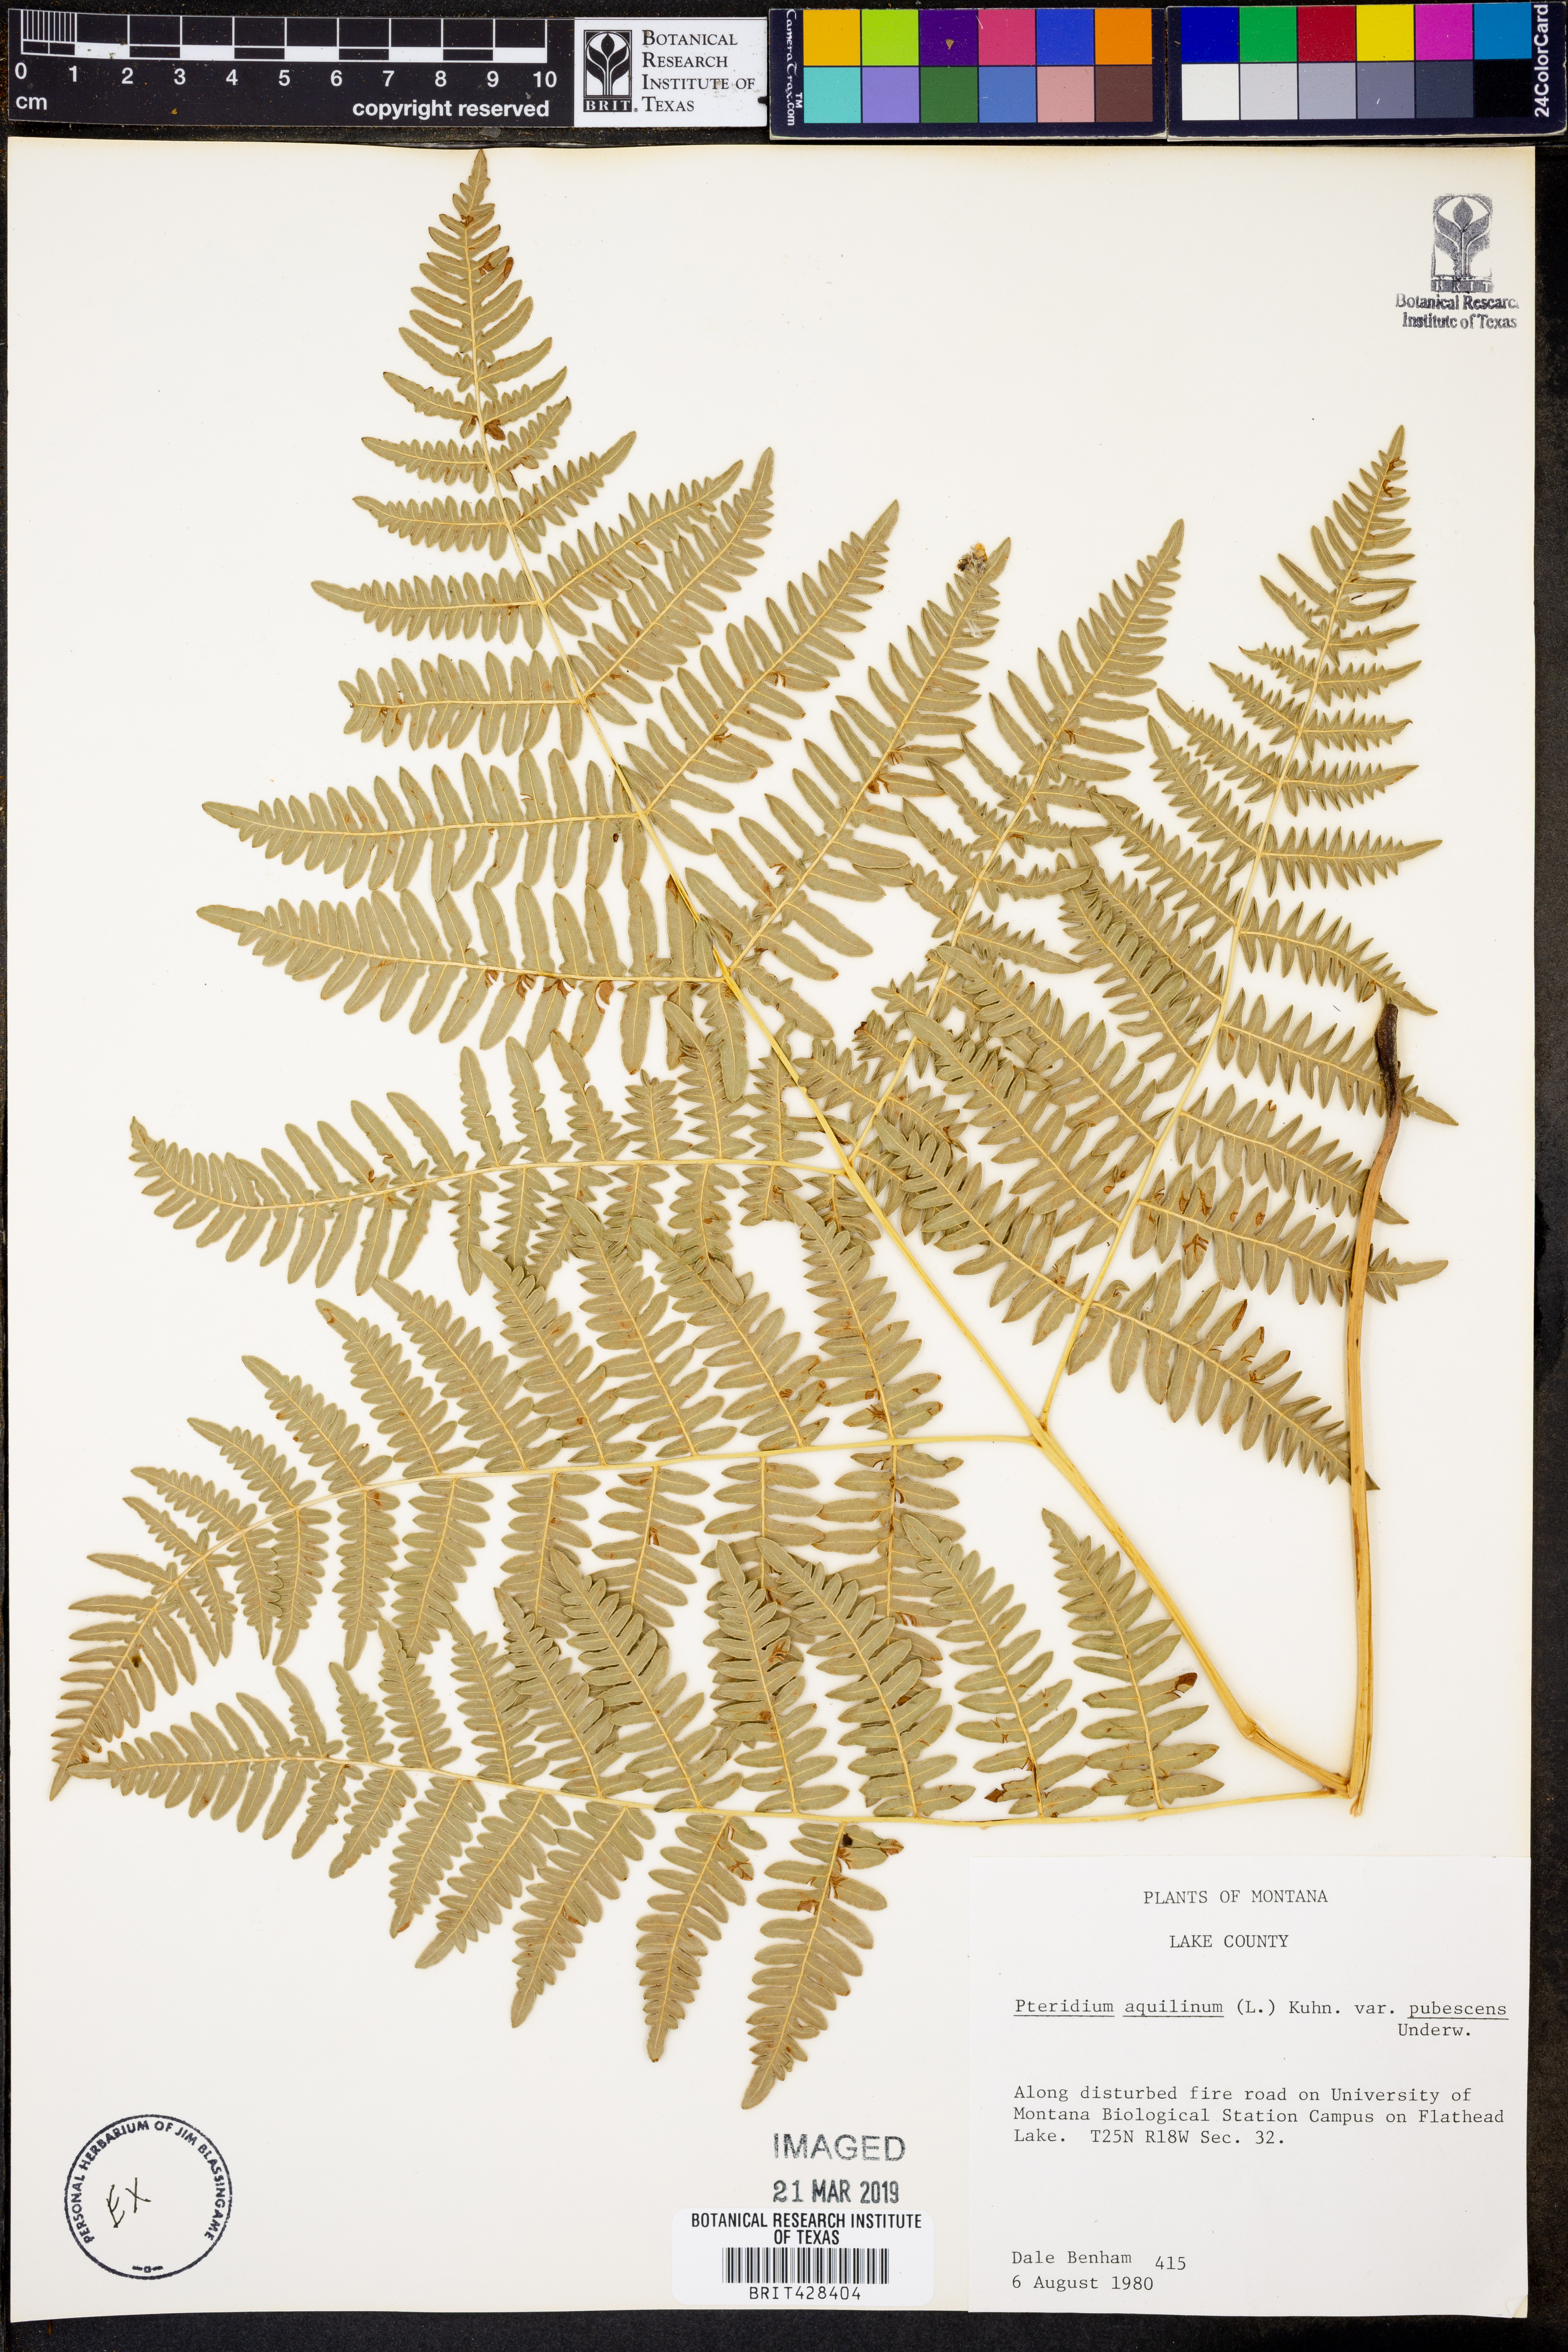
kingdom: Plantae
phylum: Tracheophyta
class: Polypodiopsida
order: Polypodiales
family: Dennstaedtiaceae
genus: Pteridium
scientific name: Pteridium aquilinum
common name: Bracken
